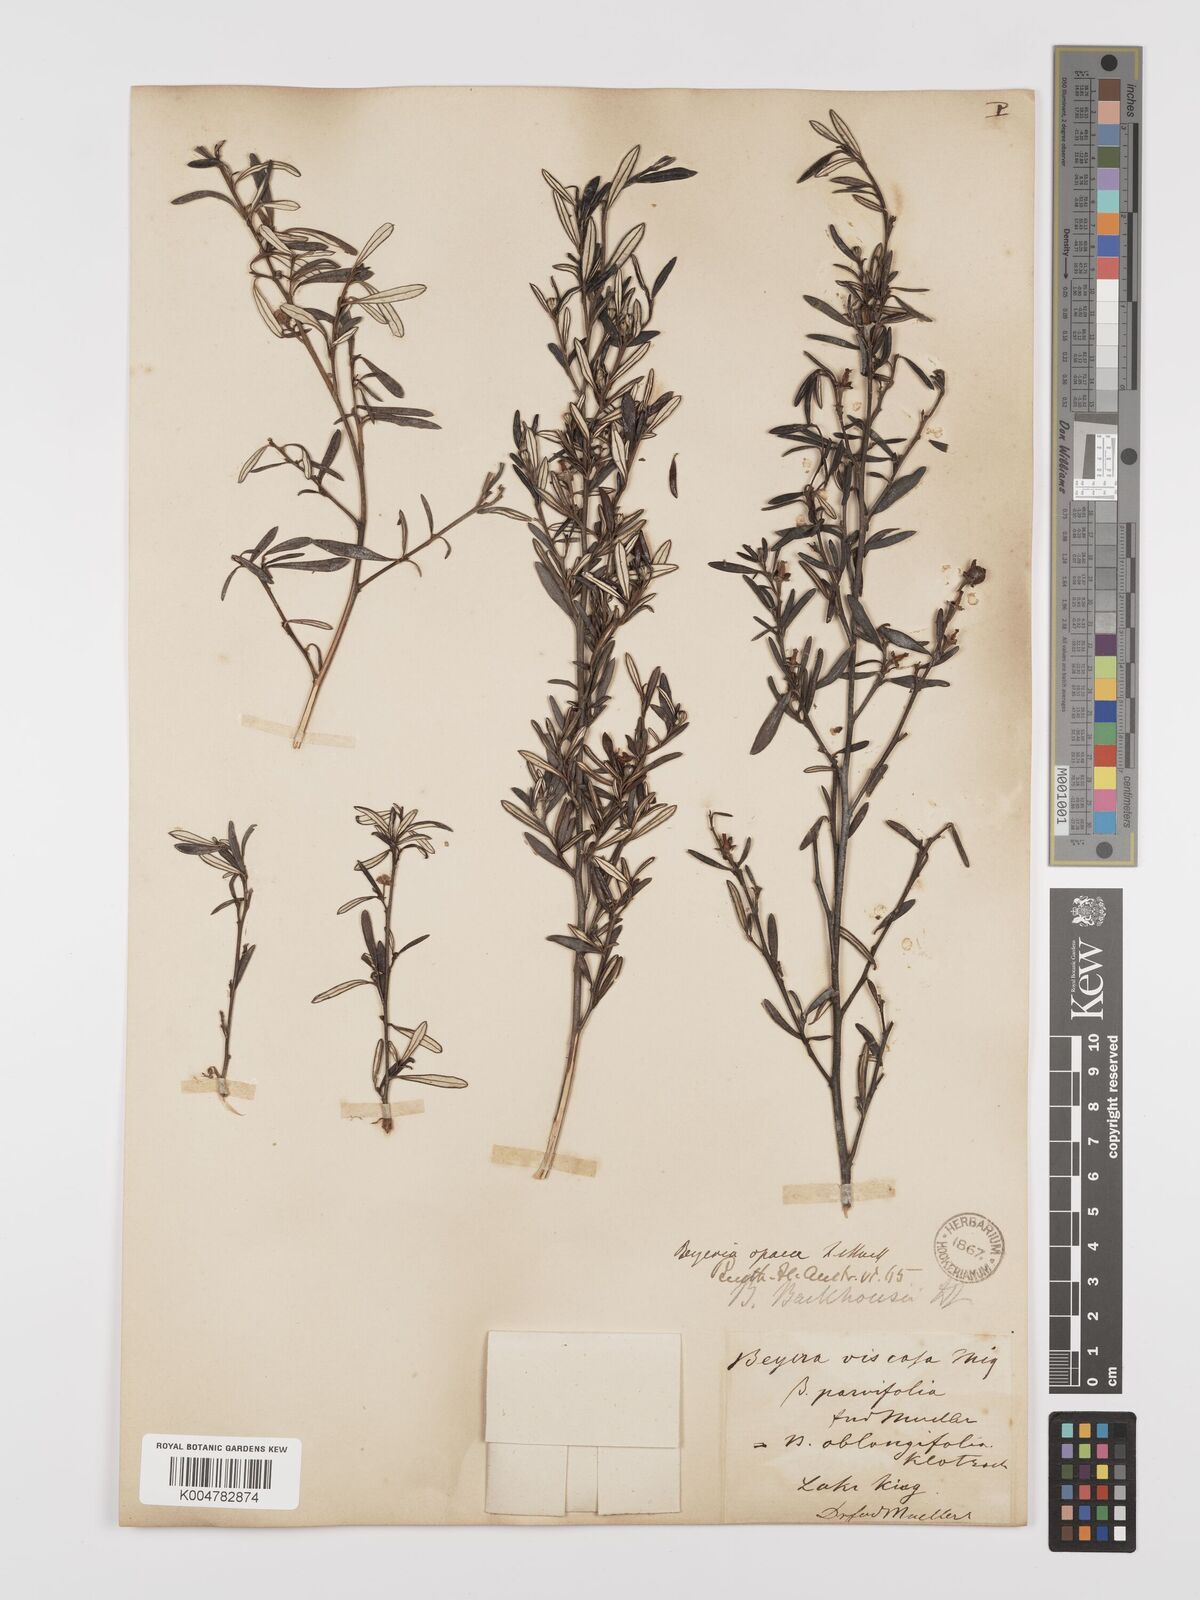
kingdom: Plantae
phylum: Tracheophyta
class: Magnoliopsida
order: Malpighiales
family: Euphorbiaceae
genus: Beyeria
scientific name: Beyeria lechenaultii
